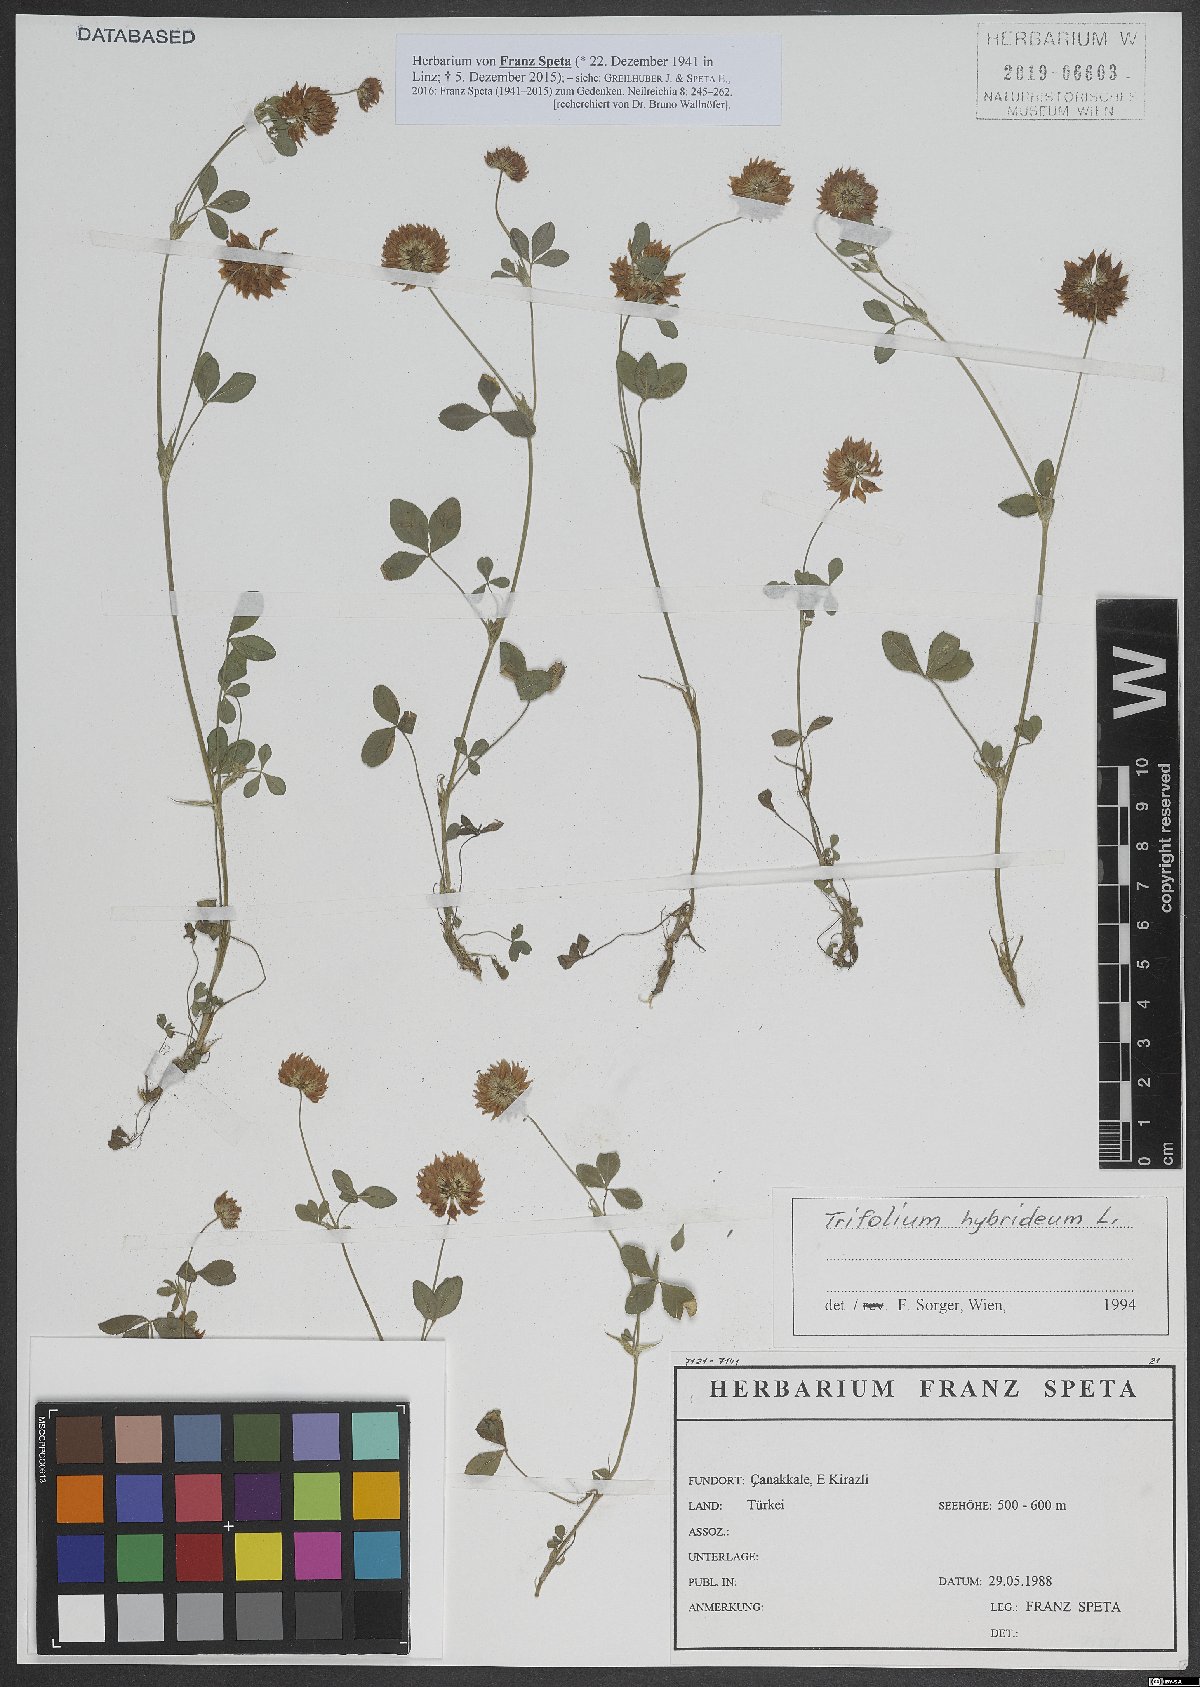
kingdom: Plantae
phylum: Tracheophyta
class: Magnoliopsida
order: Fabales
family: Fabaceae
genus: Trifolium
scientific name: Trifolium hybridum
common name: Alsike clover
